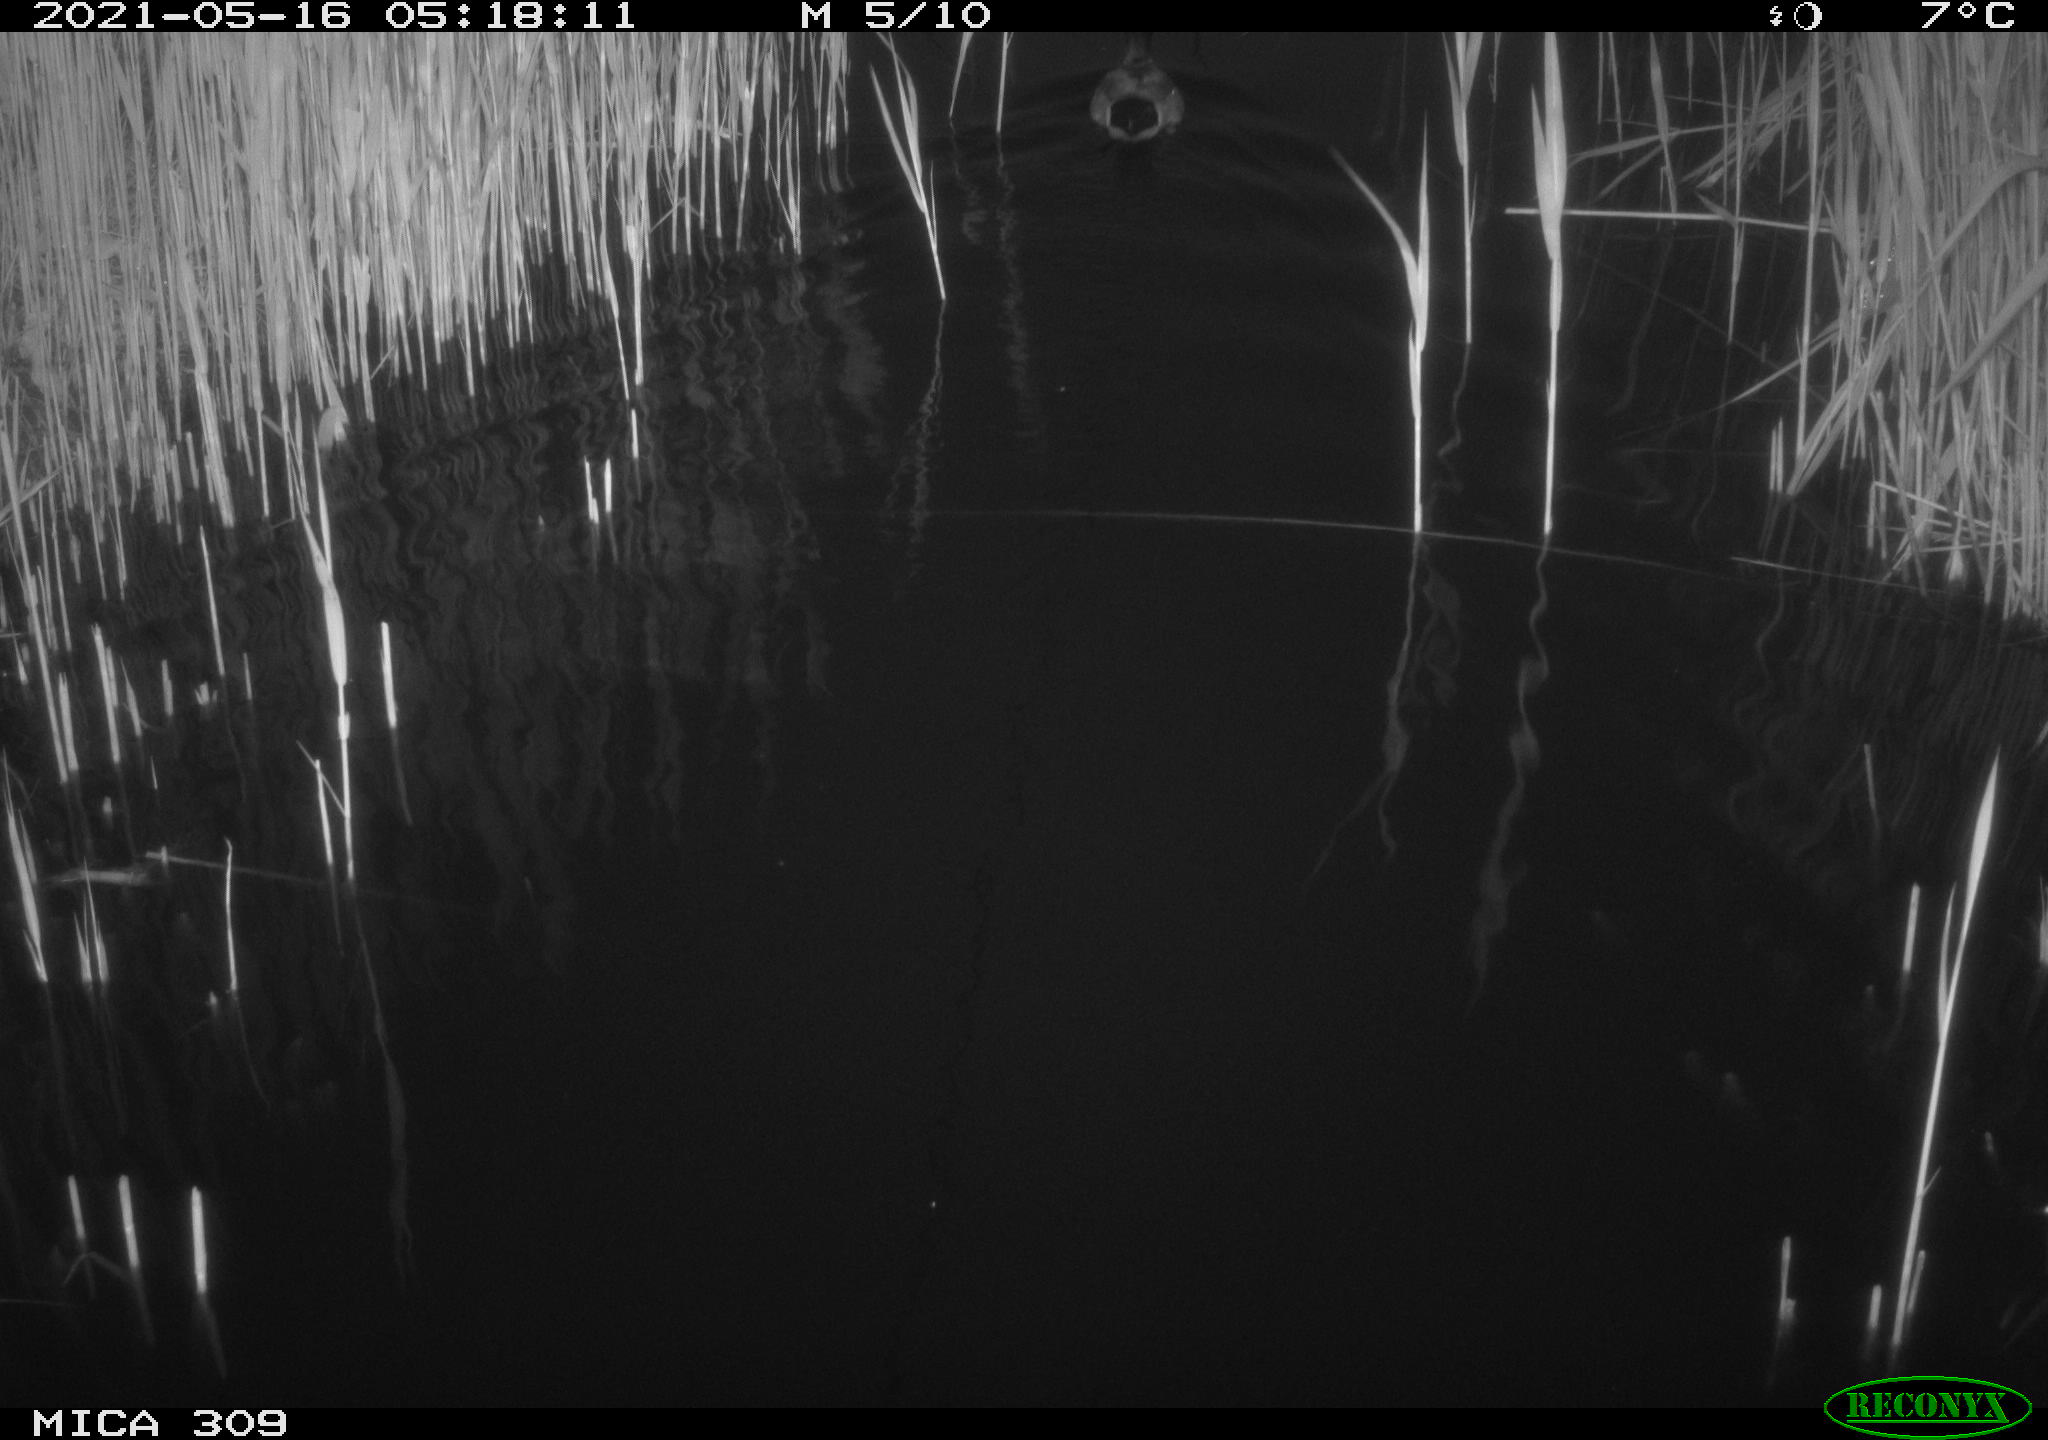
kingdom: Animalia
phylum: Chordata
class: Aves
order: Anseriformes
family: Anatidae
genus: Anas
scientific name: Anas platyrhynchos
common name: Mallard
